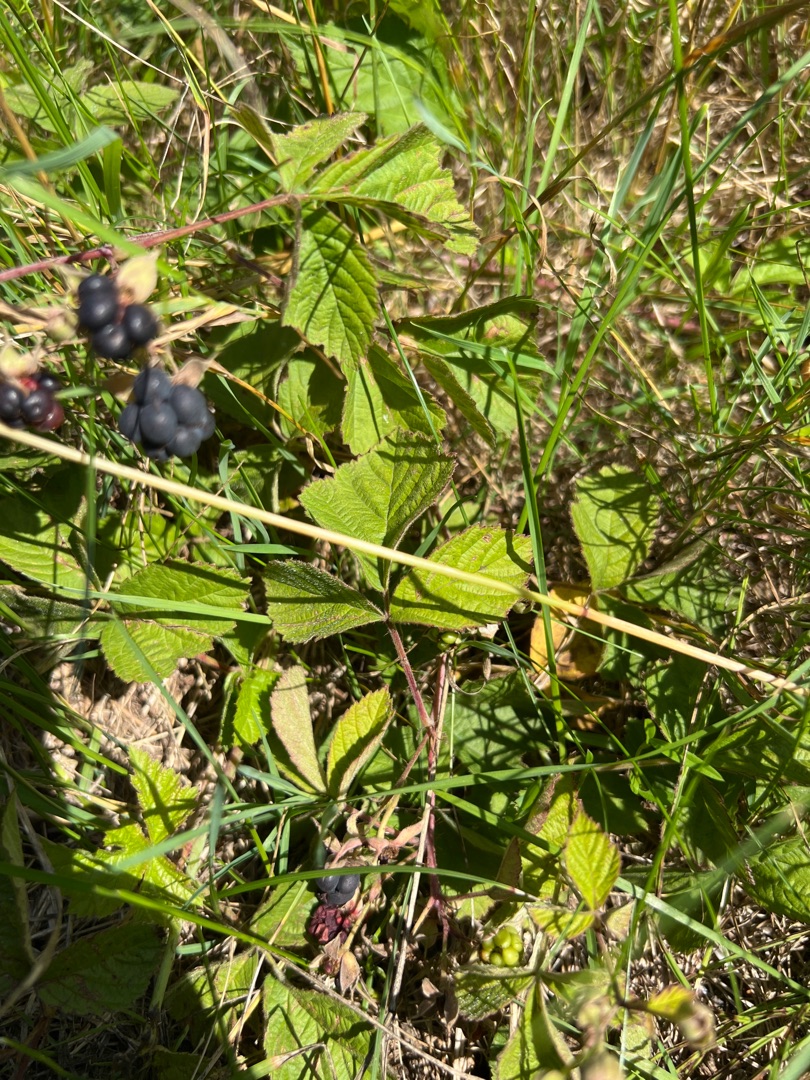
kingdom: Plantae
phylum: Tracheophyta
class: Magnoliopsida
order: Rosales
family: Rosaceae
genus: Rubus
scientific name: Rubus caesius
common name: Korbær
